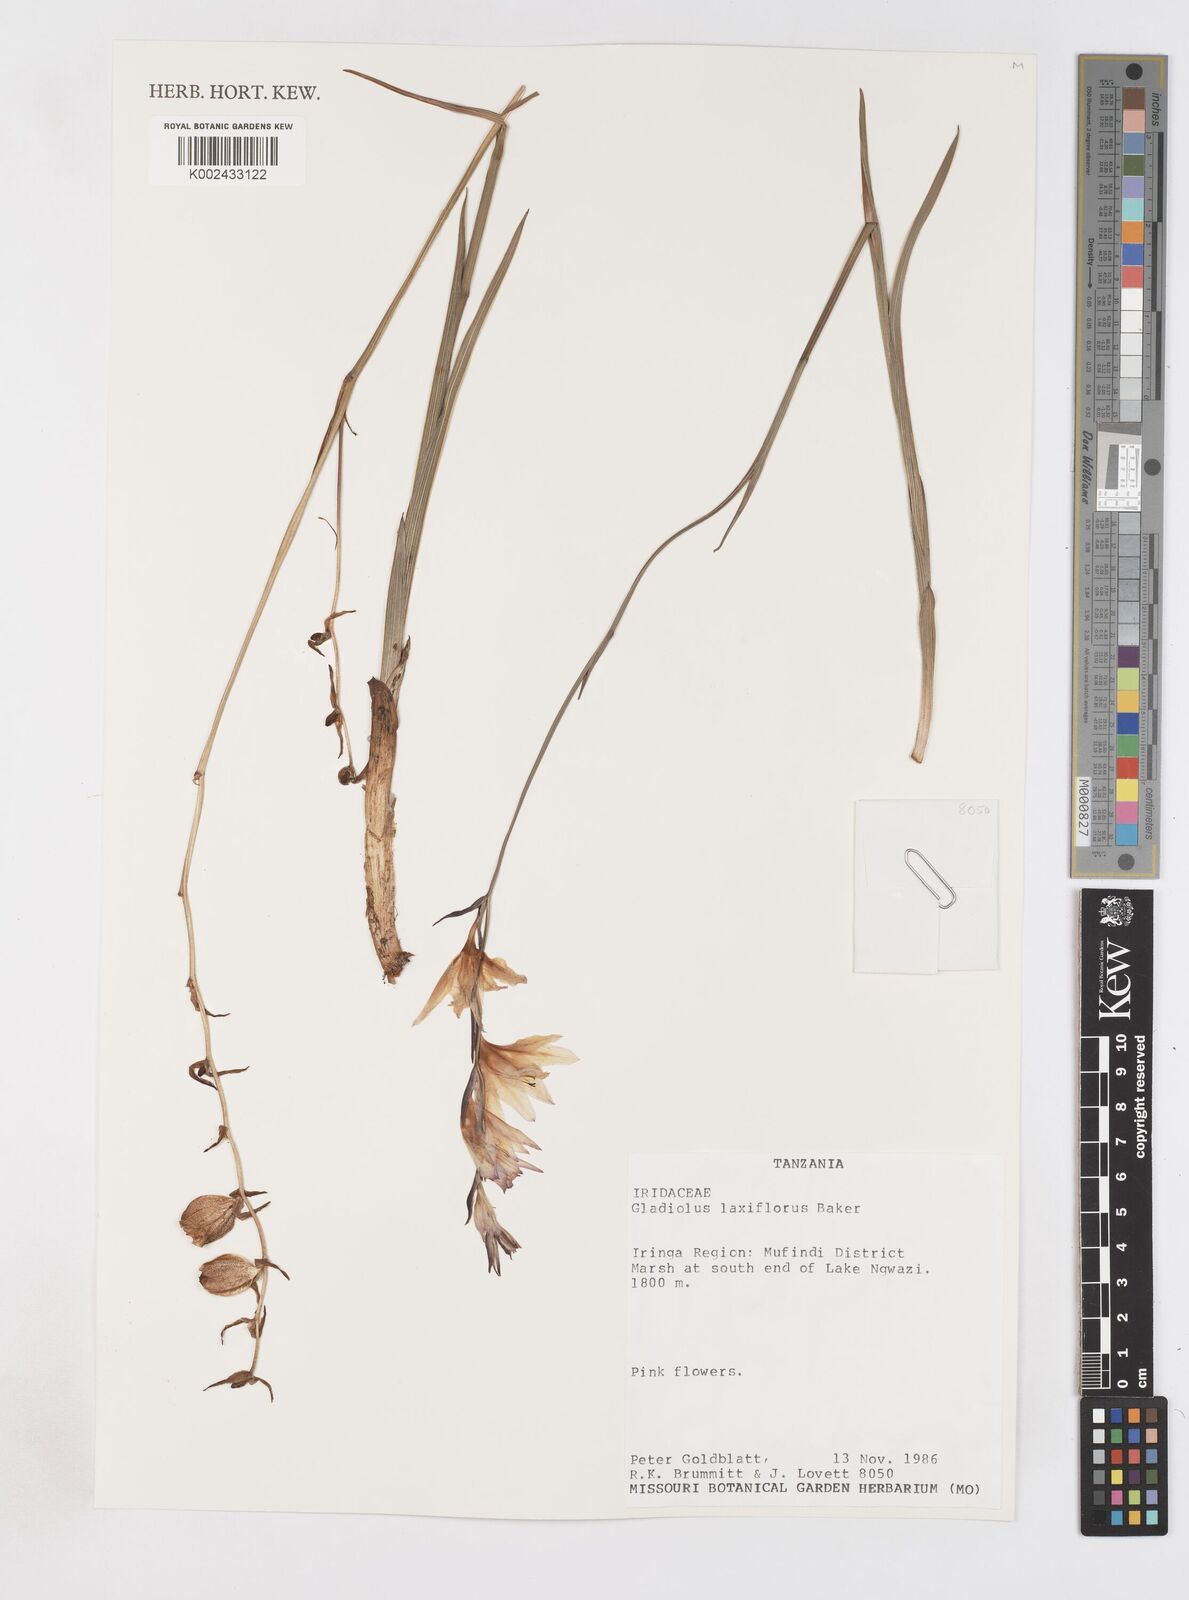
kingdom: Plantae
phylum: Tracheophyta
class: Liliopsida
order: Asparagales
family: Iridaceae
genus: Gladiolus
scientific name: Gladiolus laxiflorus
